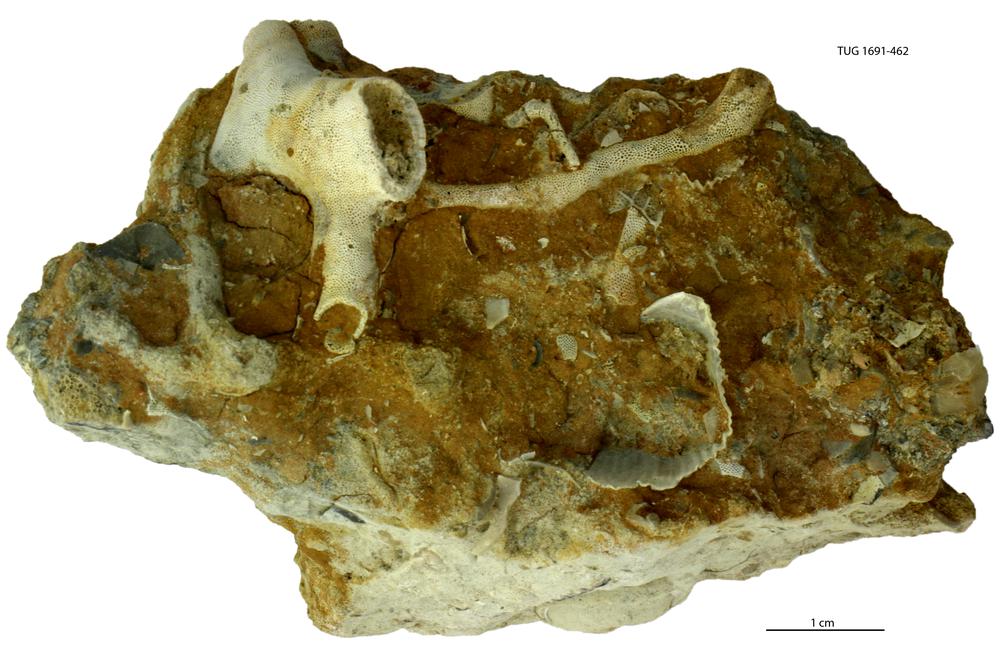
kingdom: Animalia
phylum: Bryozoa
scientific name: Bryozoa
